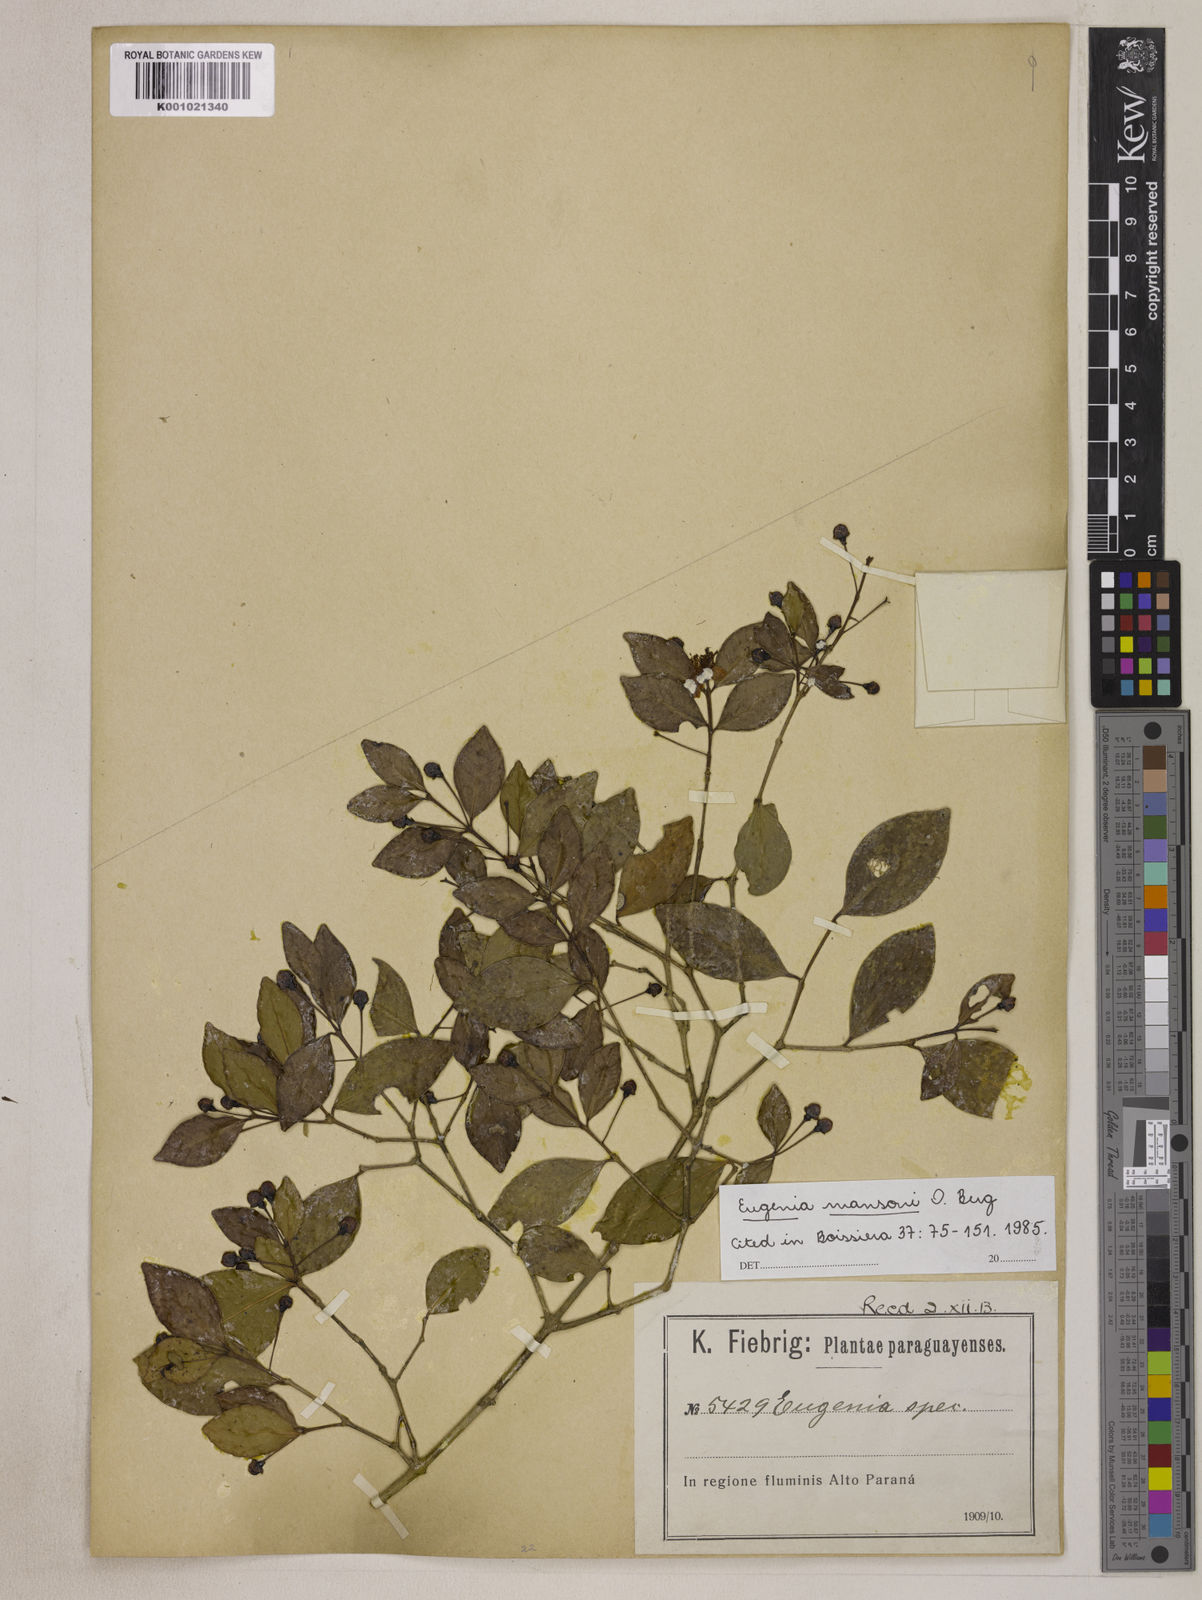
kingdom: Plantae
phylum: Tracheophyta
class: Magnoliopsida
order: Myrtales
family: Myrtaceae
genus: Eugenia
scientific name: Eugenia mansoi
